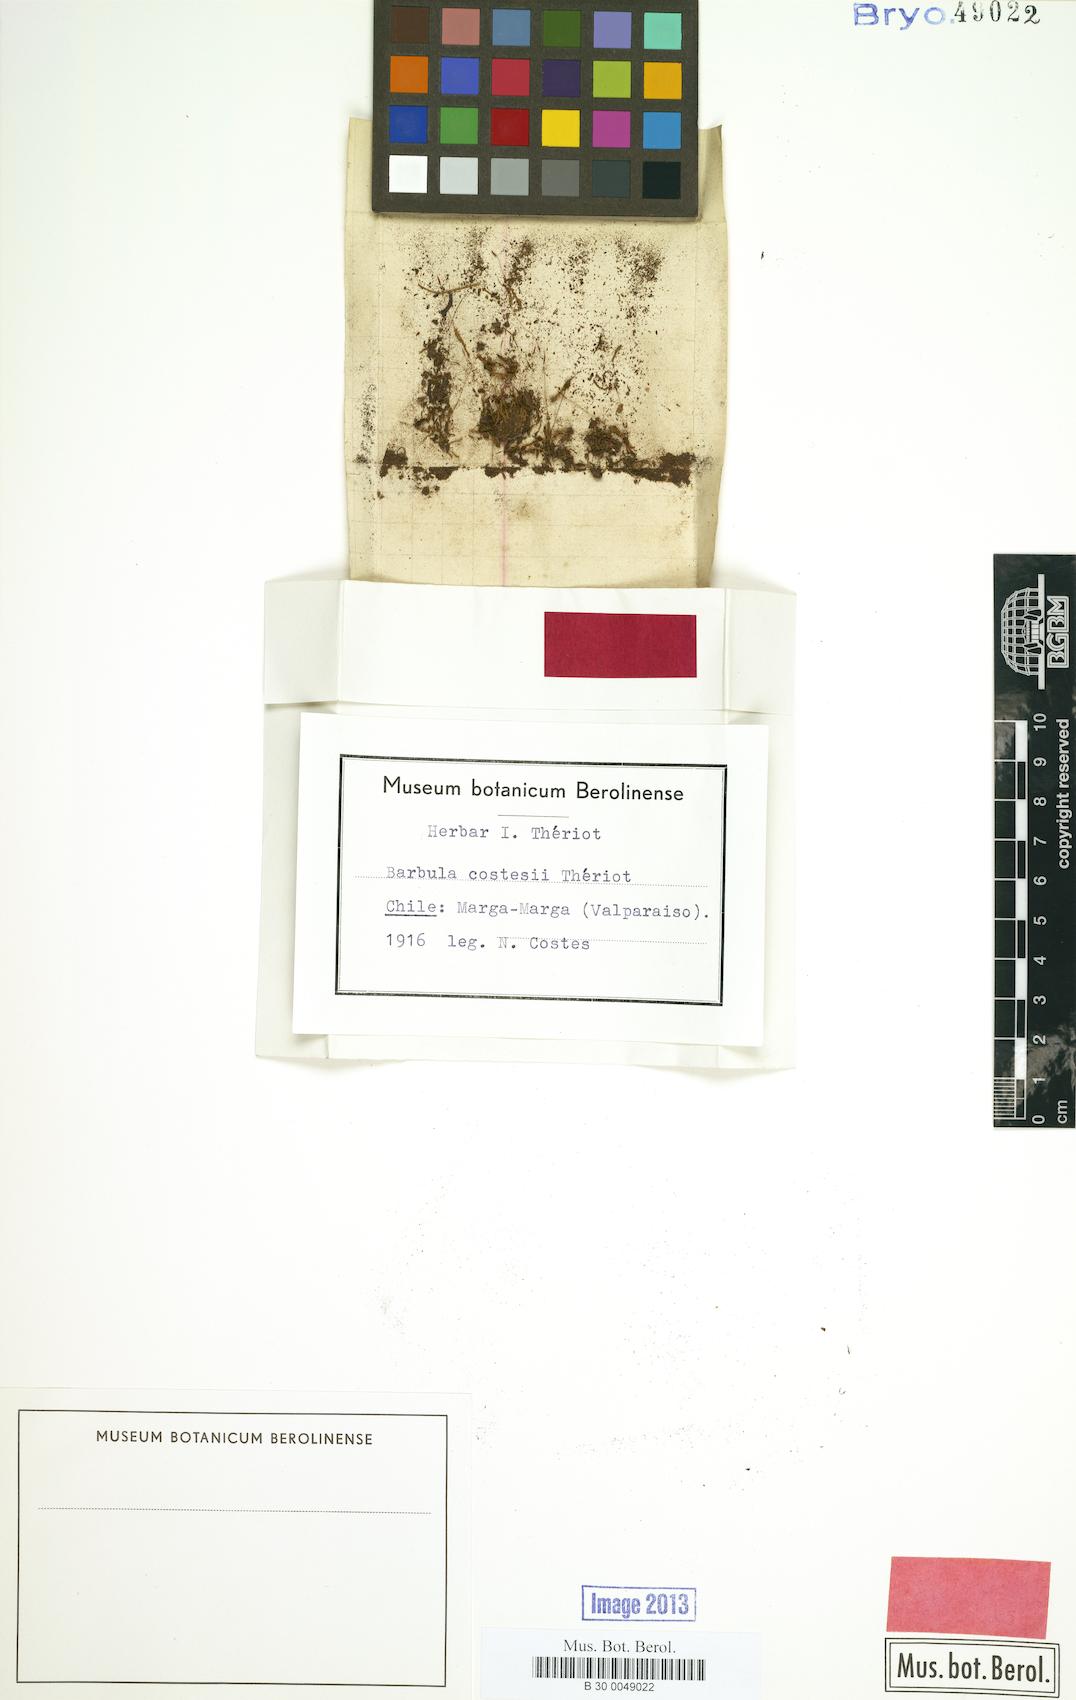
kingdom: Plantae
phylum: Bryophyta
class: Bryopsida
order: Pottiales
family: Pottiaceae
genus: Barbula
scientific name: Barbula costesii
